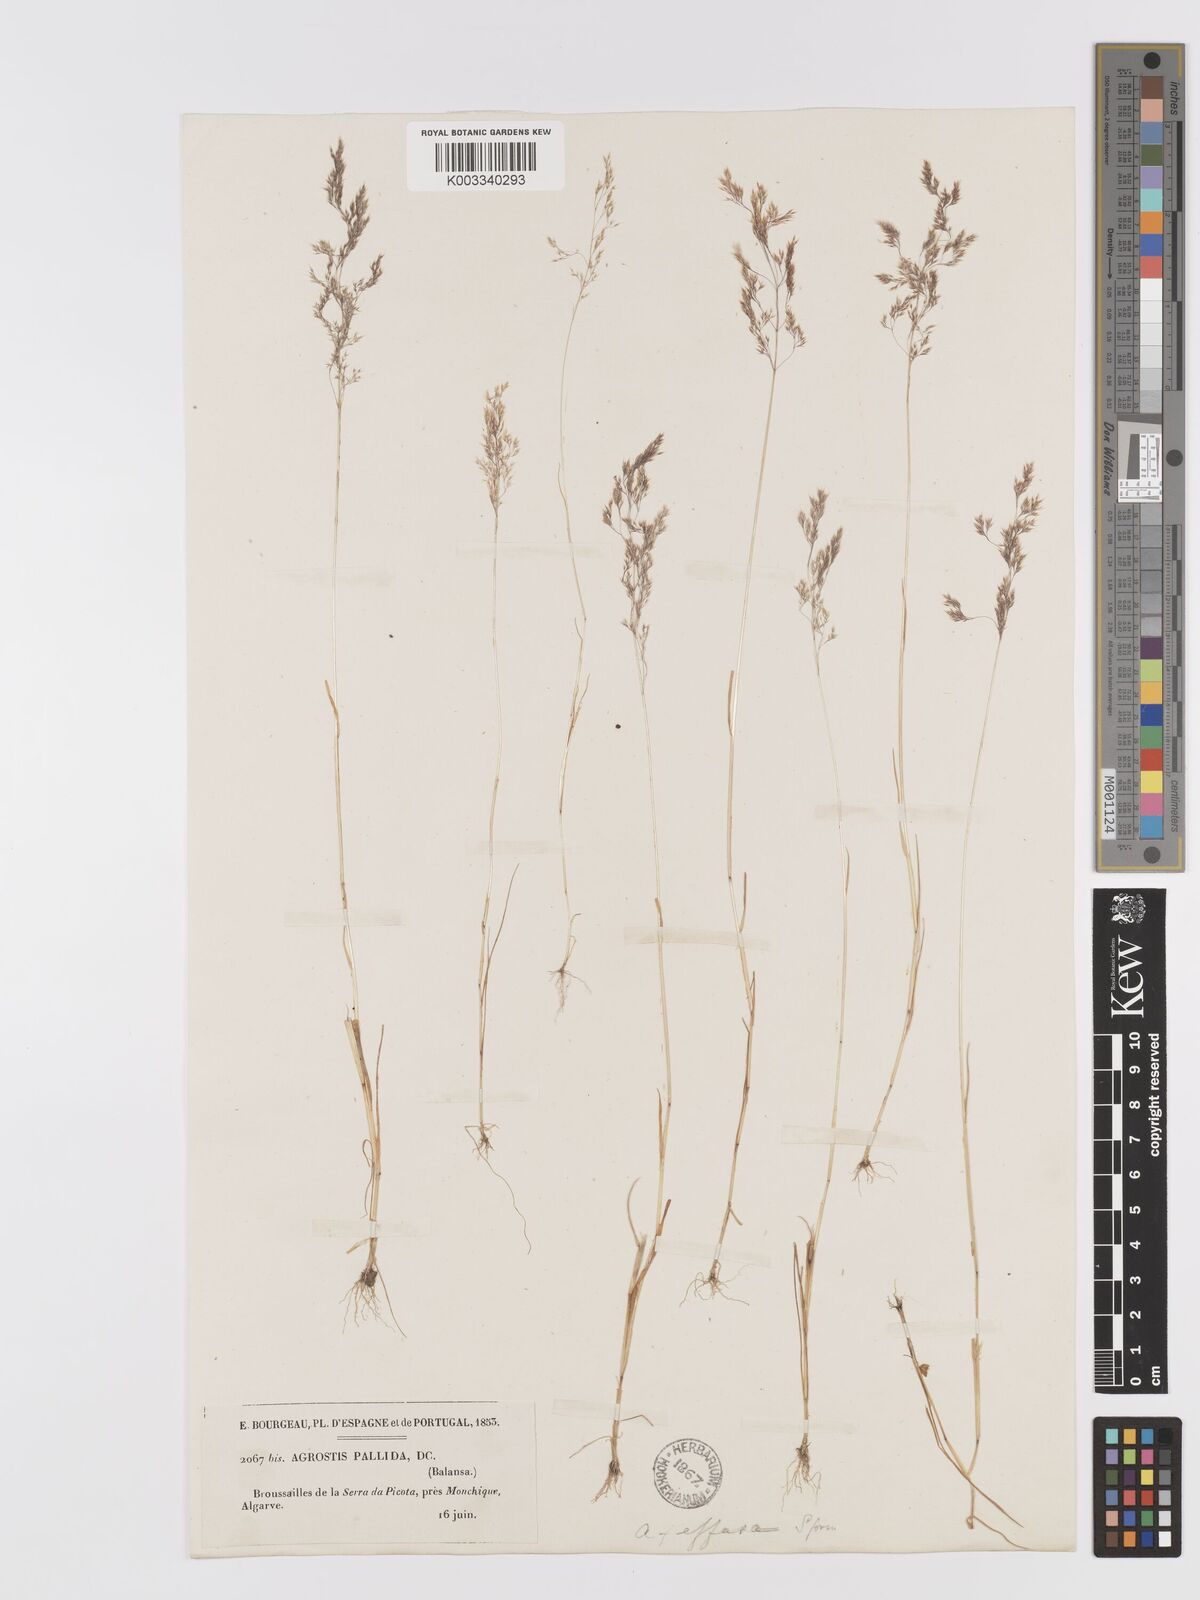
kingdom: Plantae
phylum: Tracheophyta
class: Liliopsida
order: Poales
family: Poaceae
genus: Agrostis
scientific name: Agrostis pourretii
